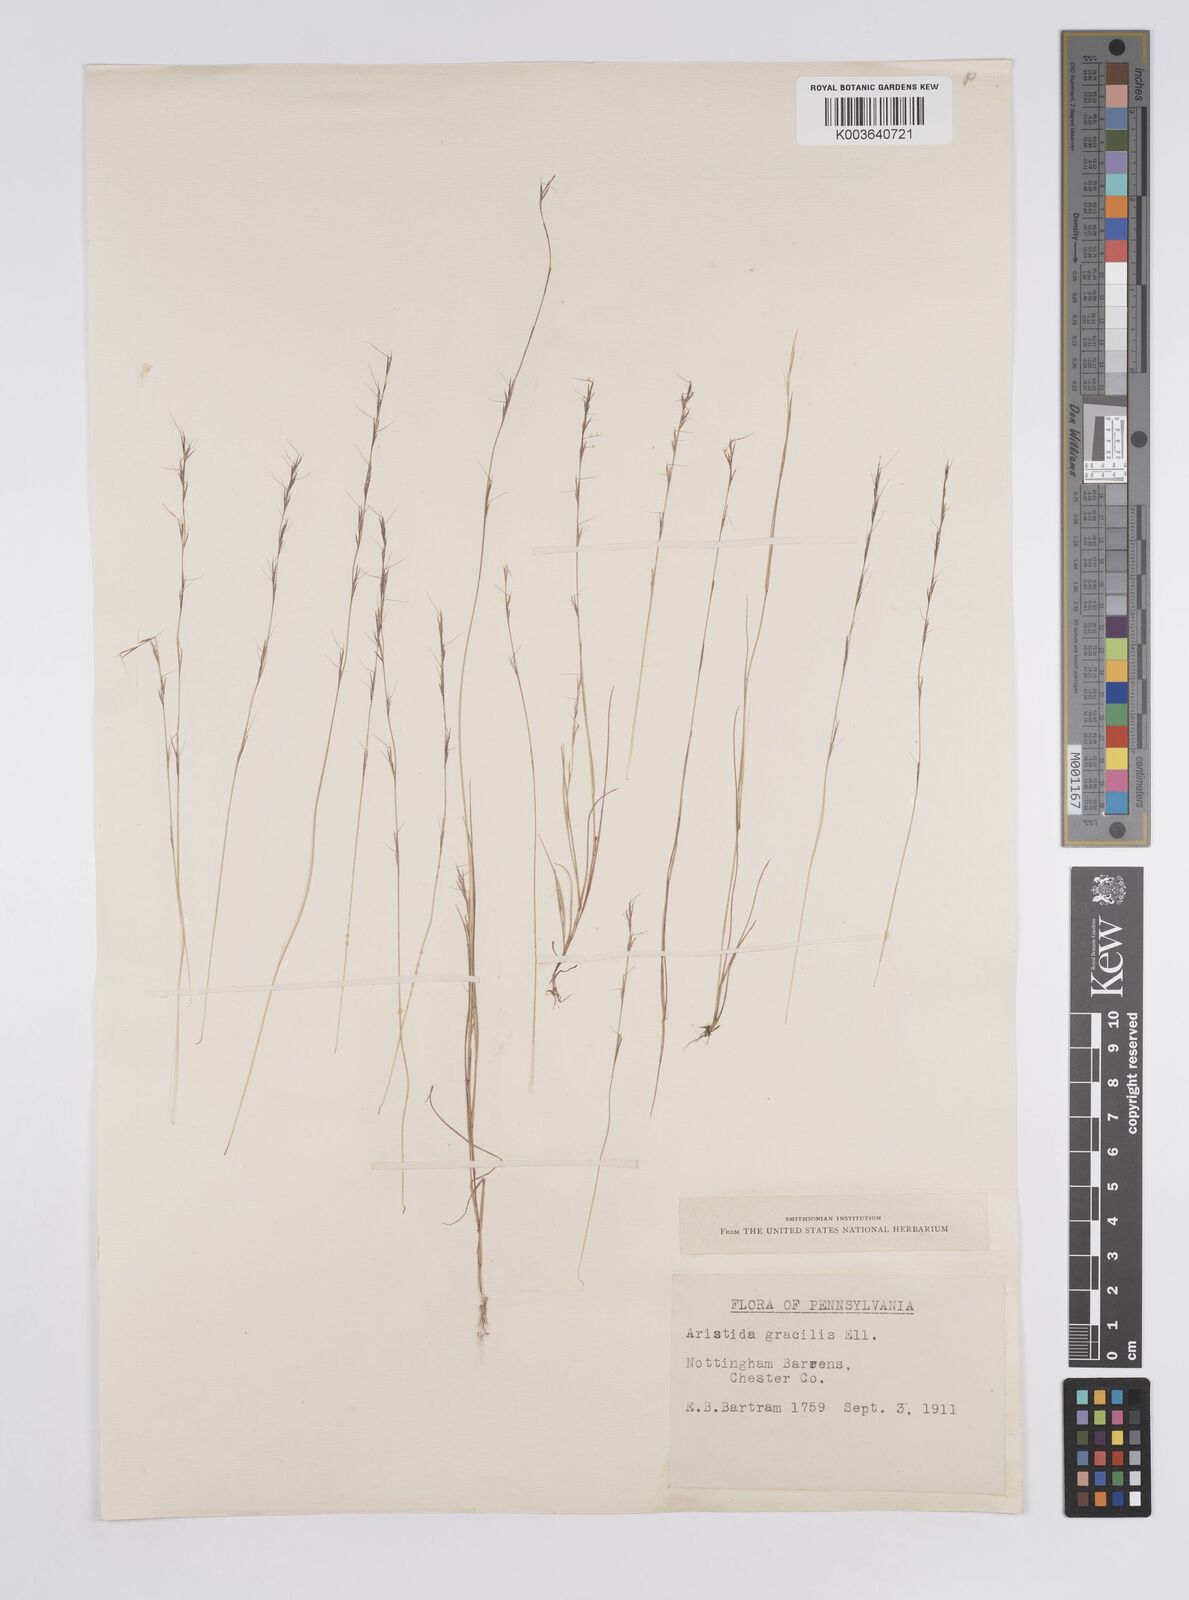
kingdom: Plantae
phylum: Tracheophyta
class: Liliopsida
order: Poales
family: Poaceae
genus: Aristida
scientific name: Aristida longespica
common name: Long-spiked triple-awned grass
